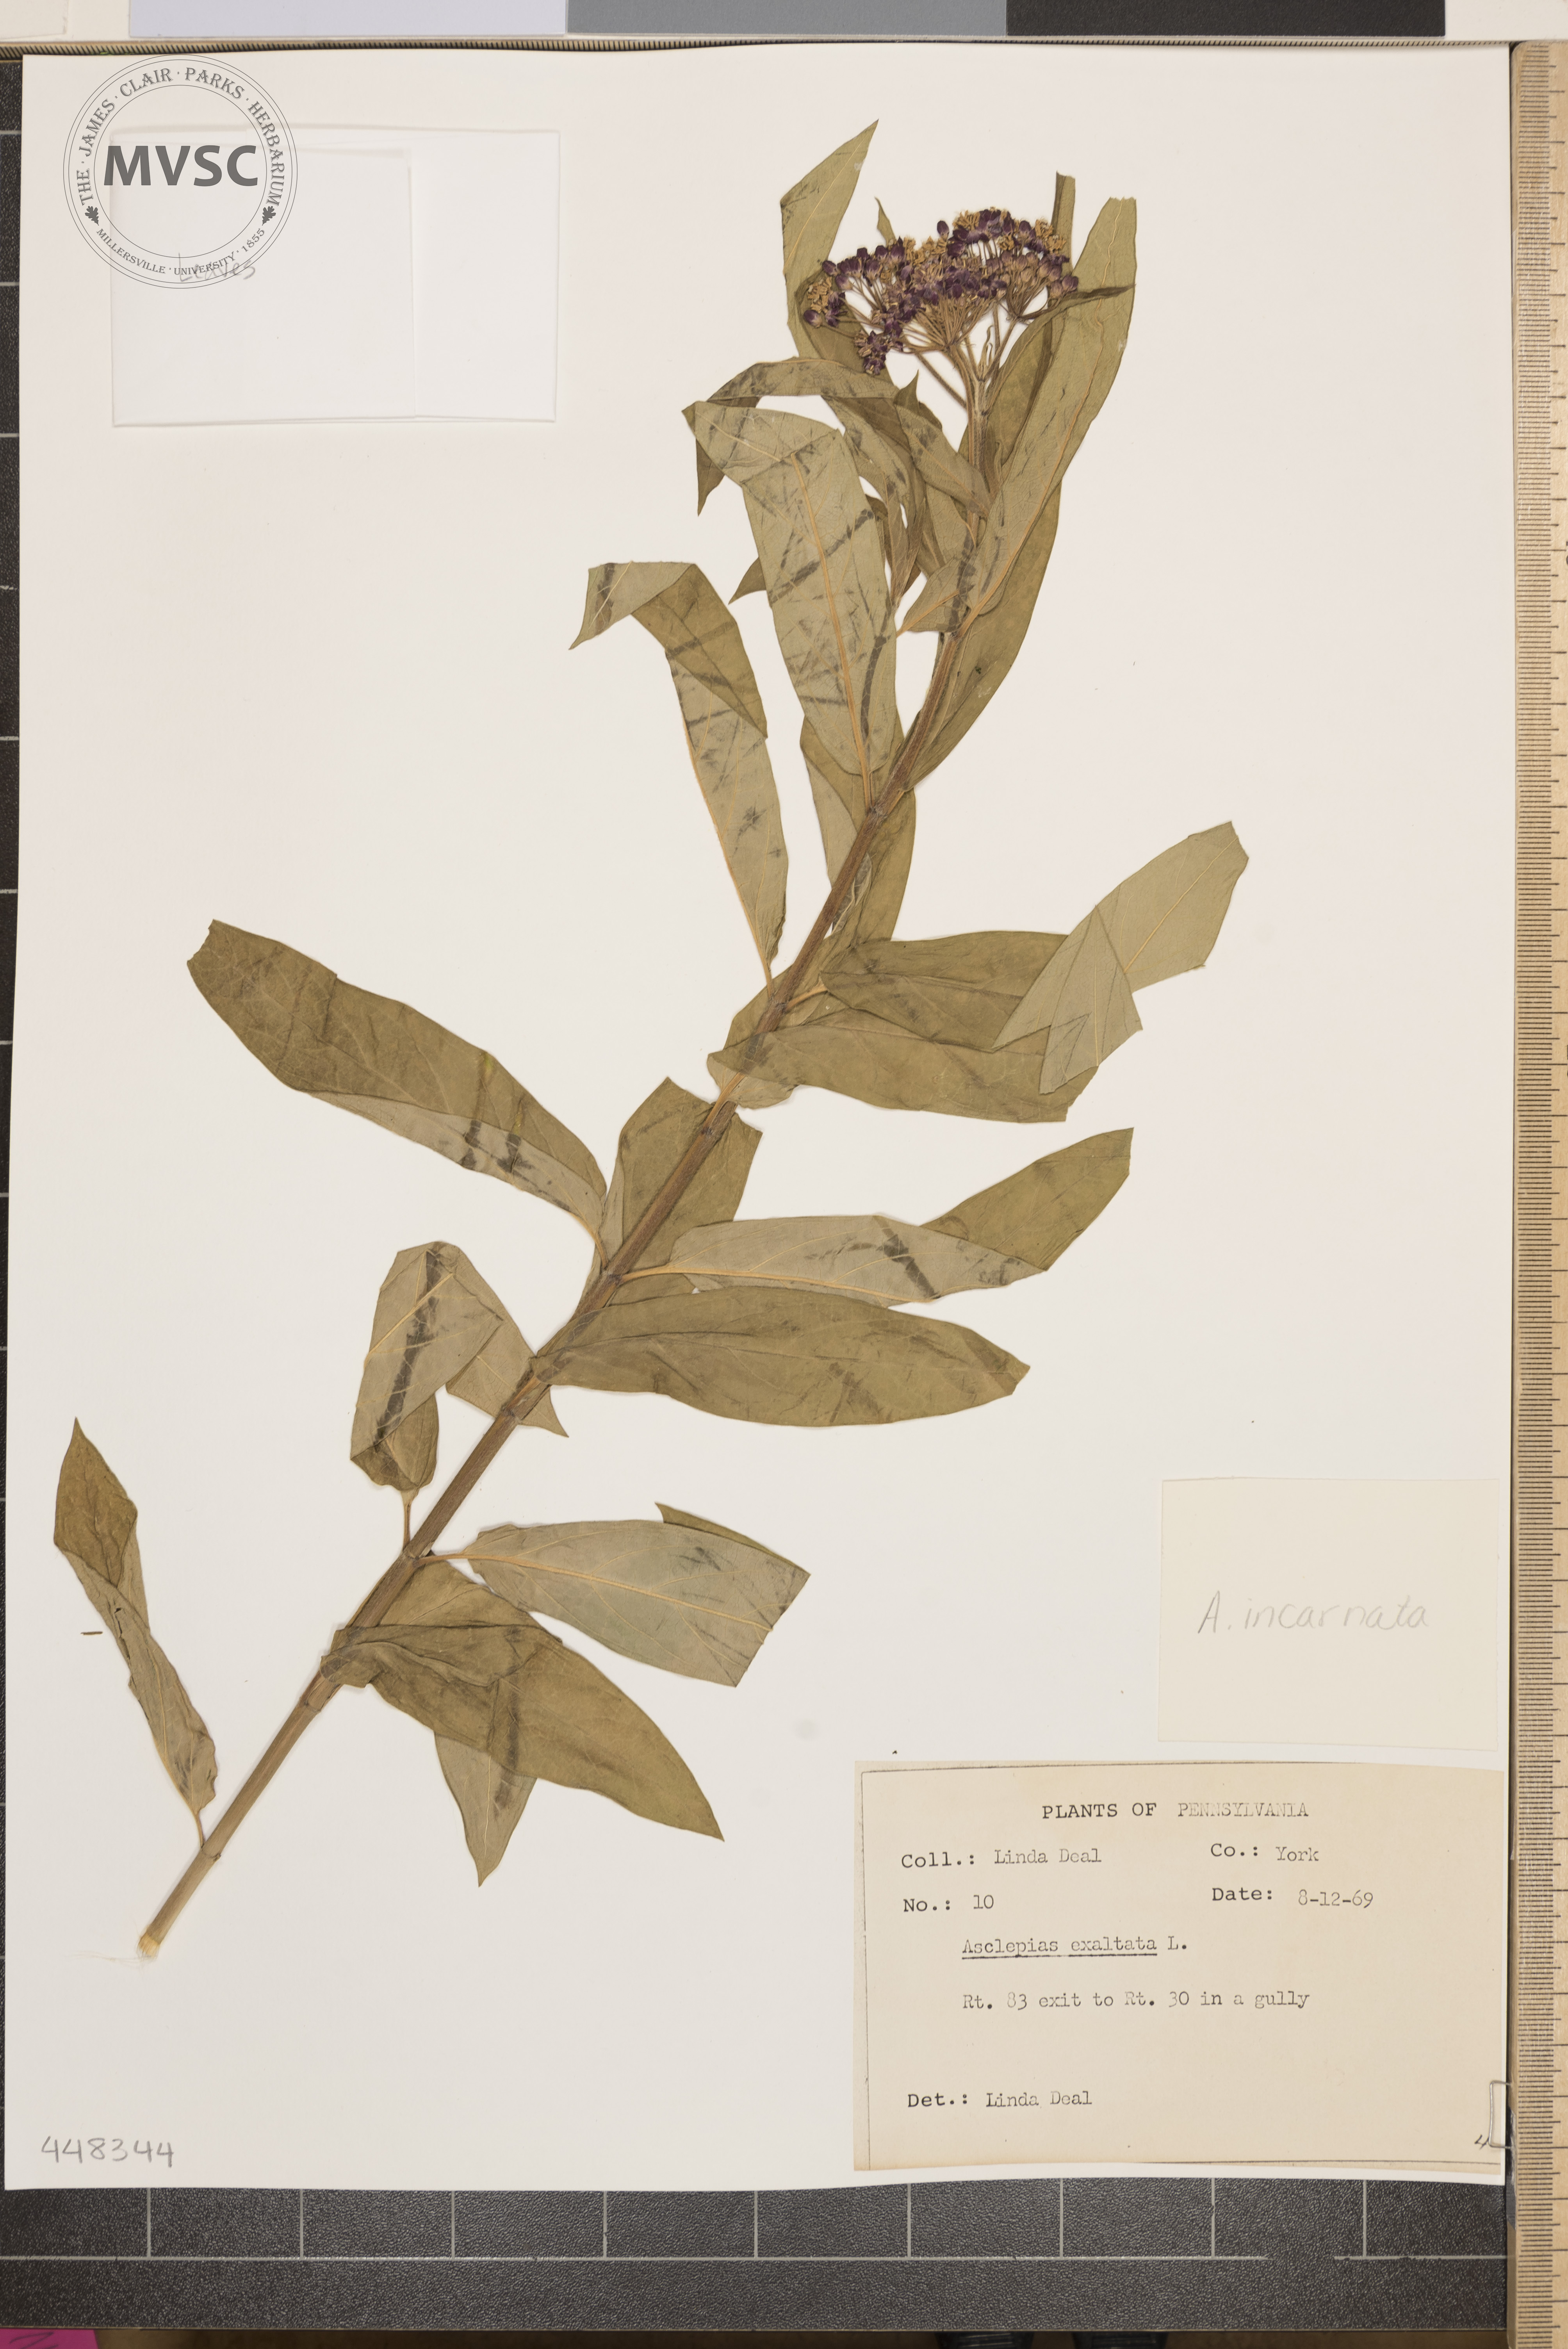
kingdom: Plantae
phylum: Tracheophyta
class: Magnoliopsida
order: Gentianales
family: Apocynaceae
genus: Asclepias
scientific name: Asclepias incarnata
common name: Swamp milkweed
